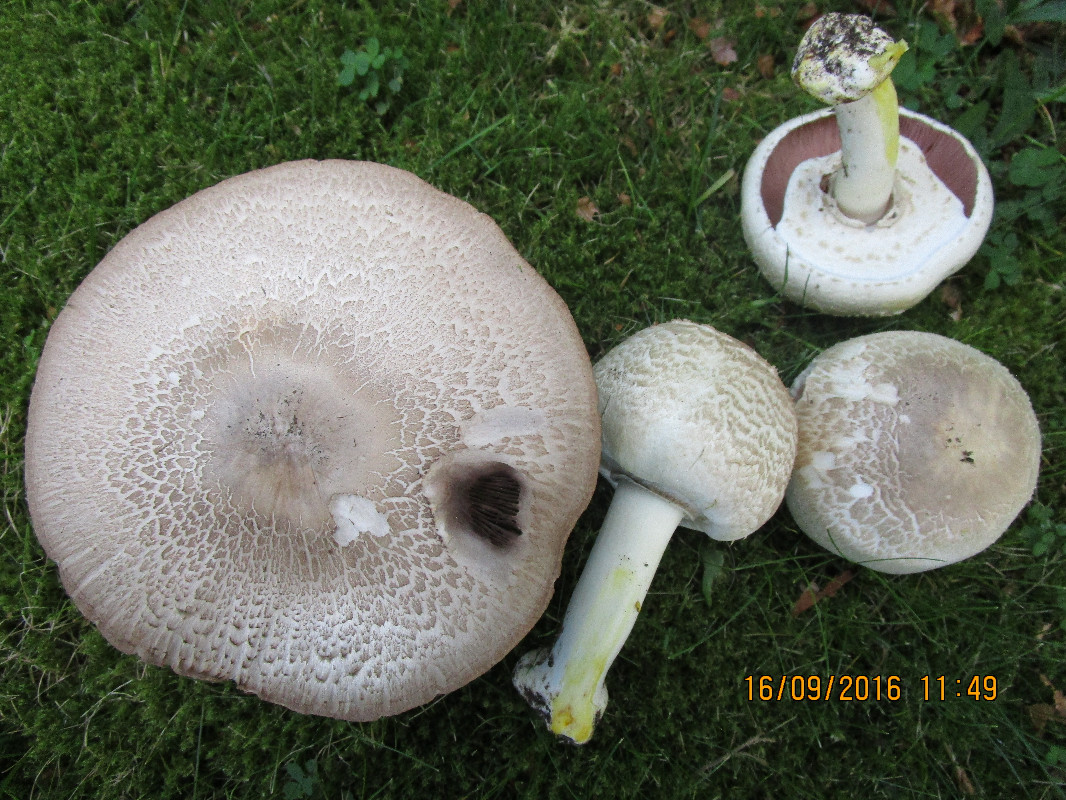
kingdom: Fungi
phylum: Basidiomycota
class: Agaricomycetes
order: Agaricales
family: Agaricaceae
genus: Agaricus
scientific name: Agaricus xanthodermus
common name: karbol-champignon
